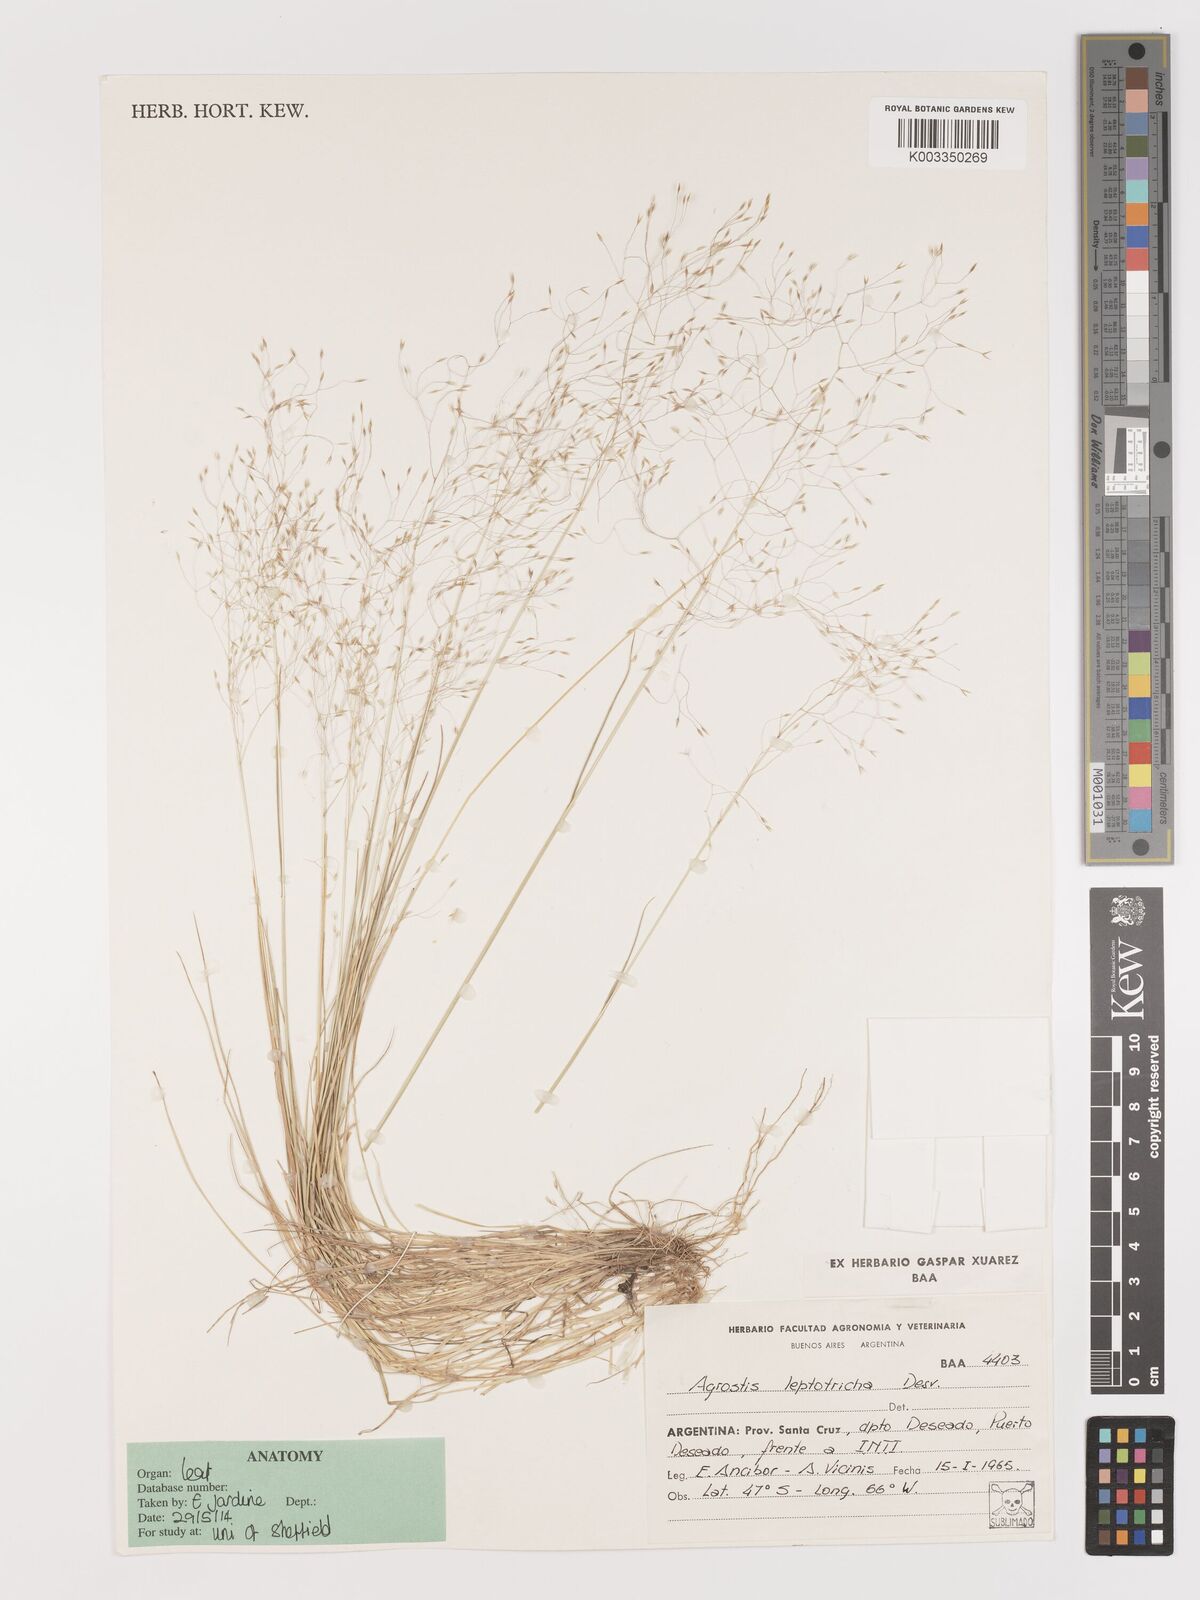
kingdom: Plantae
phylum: Tracheophyta
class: Liliopsida
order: Poales
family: Poaceae
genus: Agrostis
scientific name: Agrostis leptotricha
